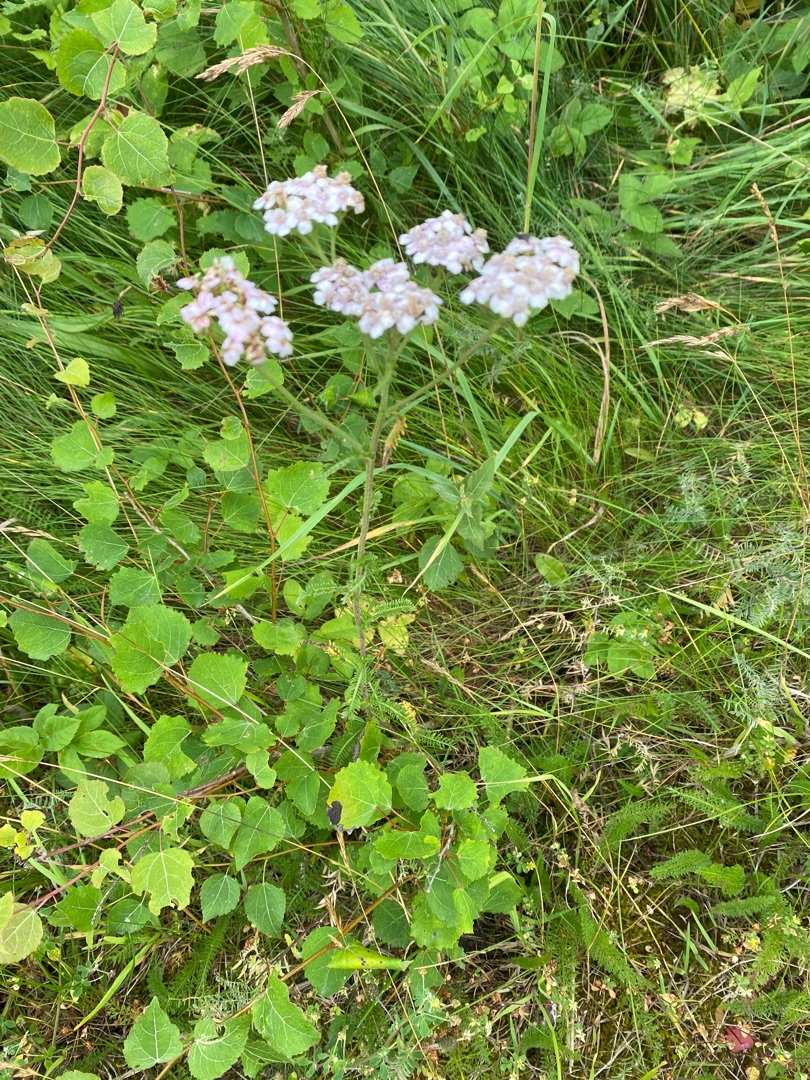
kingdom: Plantae
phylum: Tracheophyta
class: Magnoliopsida
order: Asterales
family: Asteraceae
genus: Achillea
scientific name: Achillea millefolium
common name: Almindelig røllike
